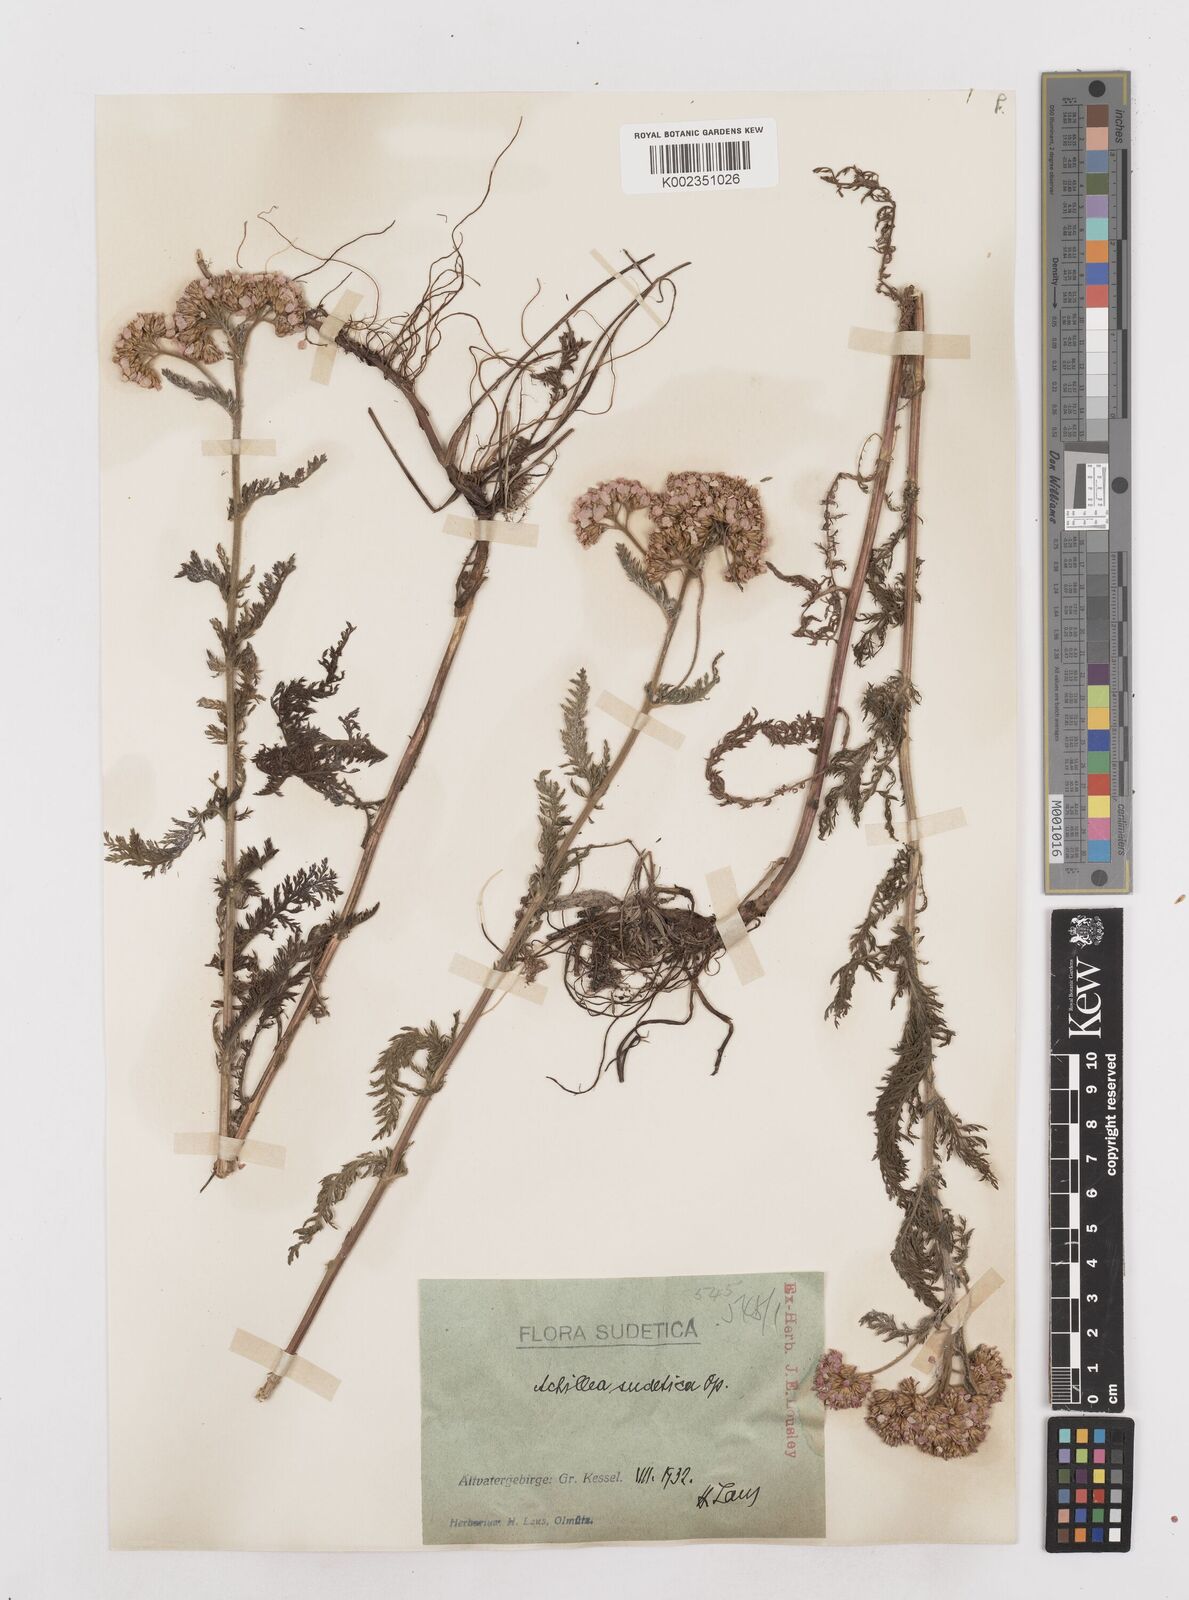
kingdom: Plantae
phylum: Tracheophyta
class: Magnoliopsida
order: Asterales
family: Asteraceae
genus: Achillea
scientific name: Achillea millefolium
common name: Yarrow
